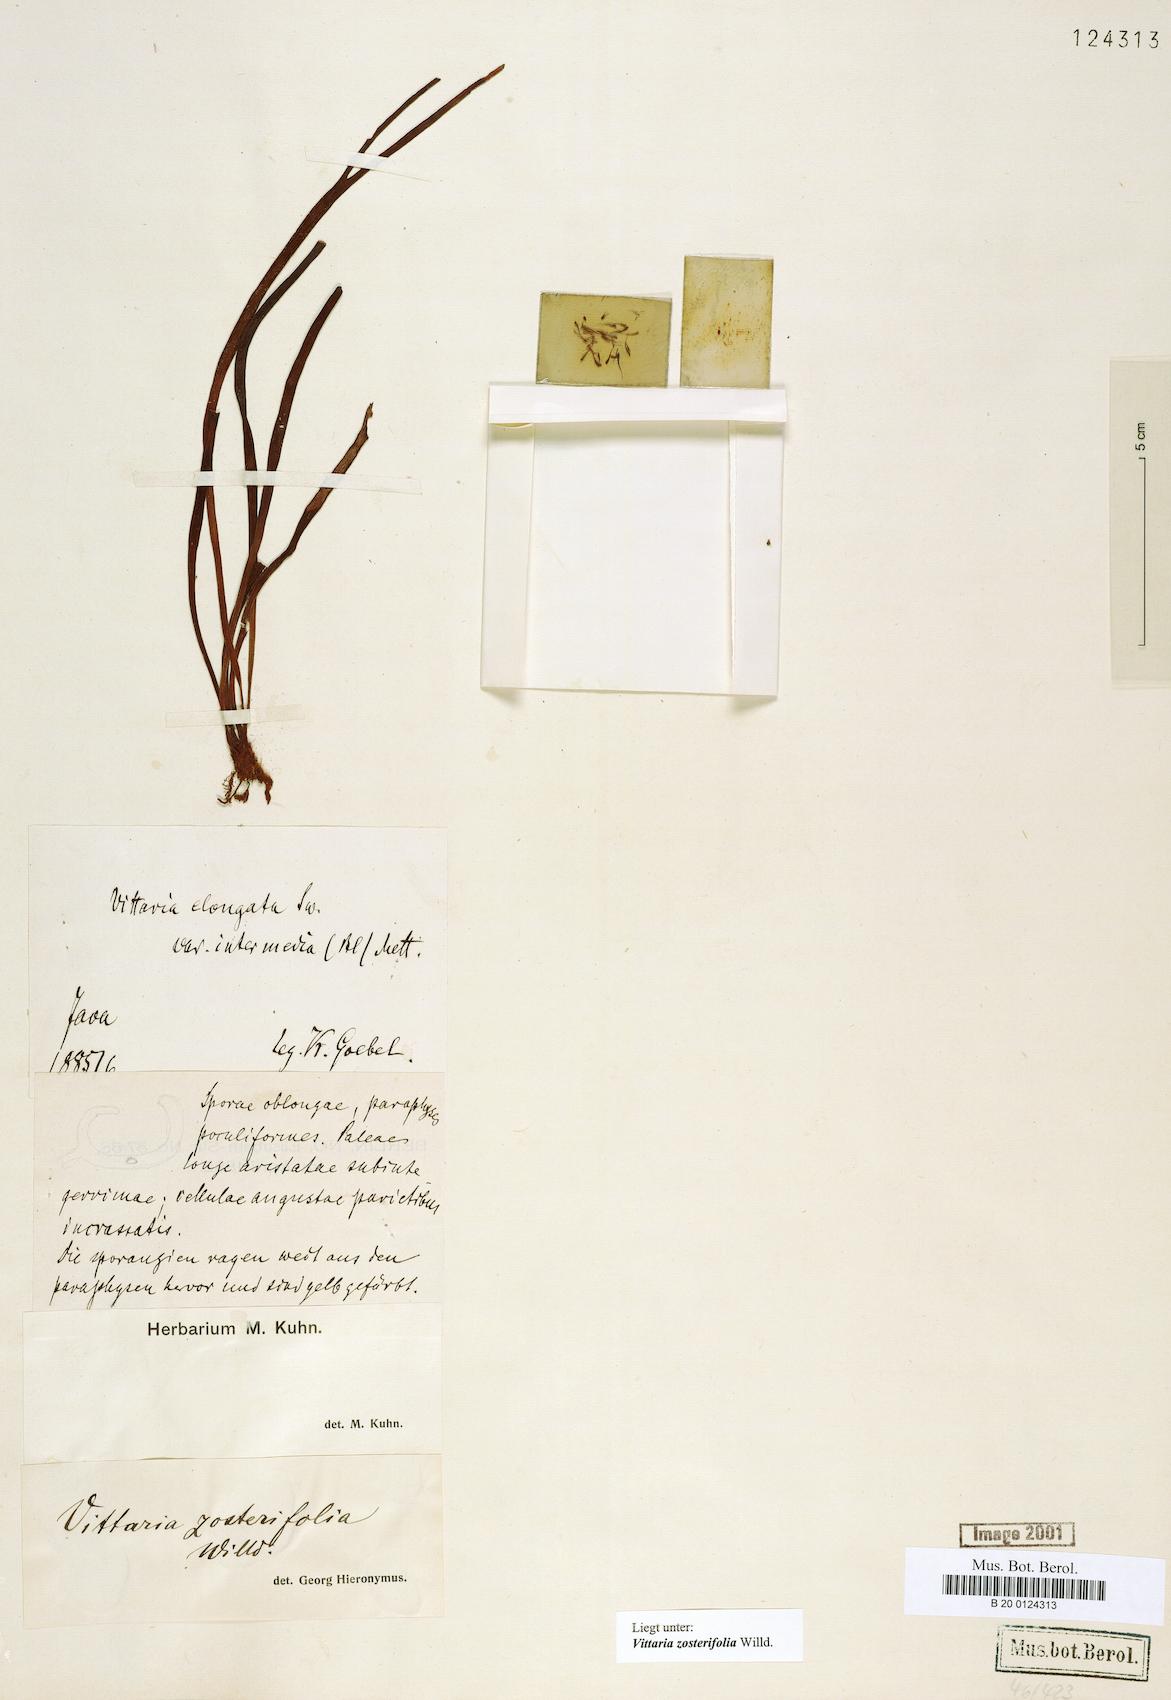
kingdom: Plantae
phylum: Tracheophyta
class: Polypodiopsida
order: Polypodiales
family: Pteridaceae
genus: Haplopteris
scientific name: Haplopteris zosterifolia
